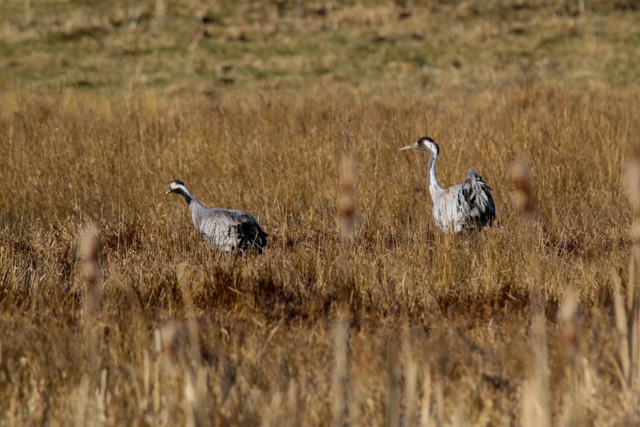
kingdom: Animalia
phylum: Chordata
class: Aves
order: Gruiformes
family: Gruidae
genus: Grus
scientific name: Grus grus
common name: Trane
